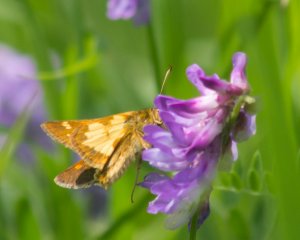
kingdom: Animalia
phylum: Arthropoda
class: Insecta
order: Lepidoptera
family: Hesperiidae
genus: Polites
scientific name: Polites coras
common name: Peck's Skipper
